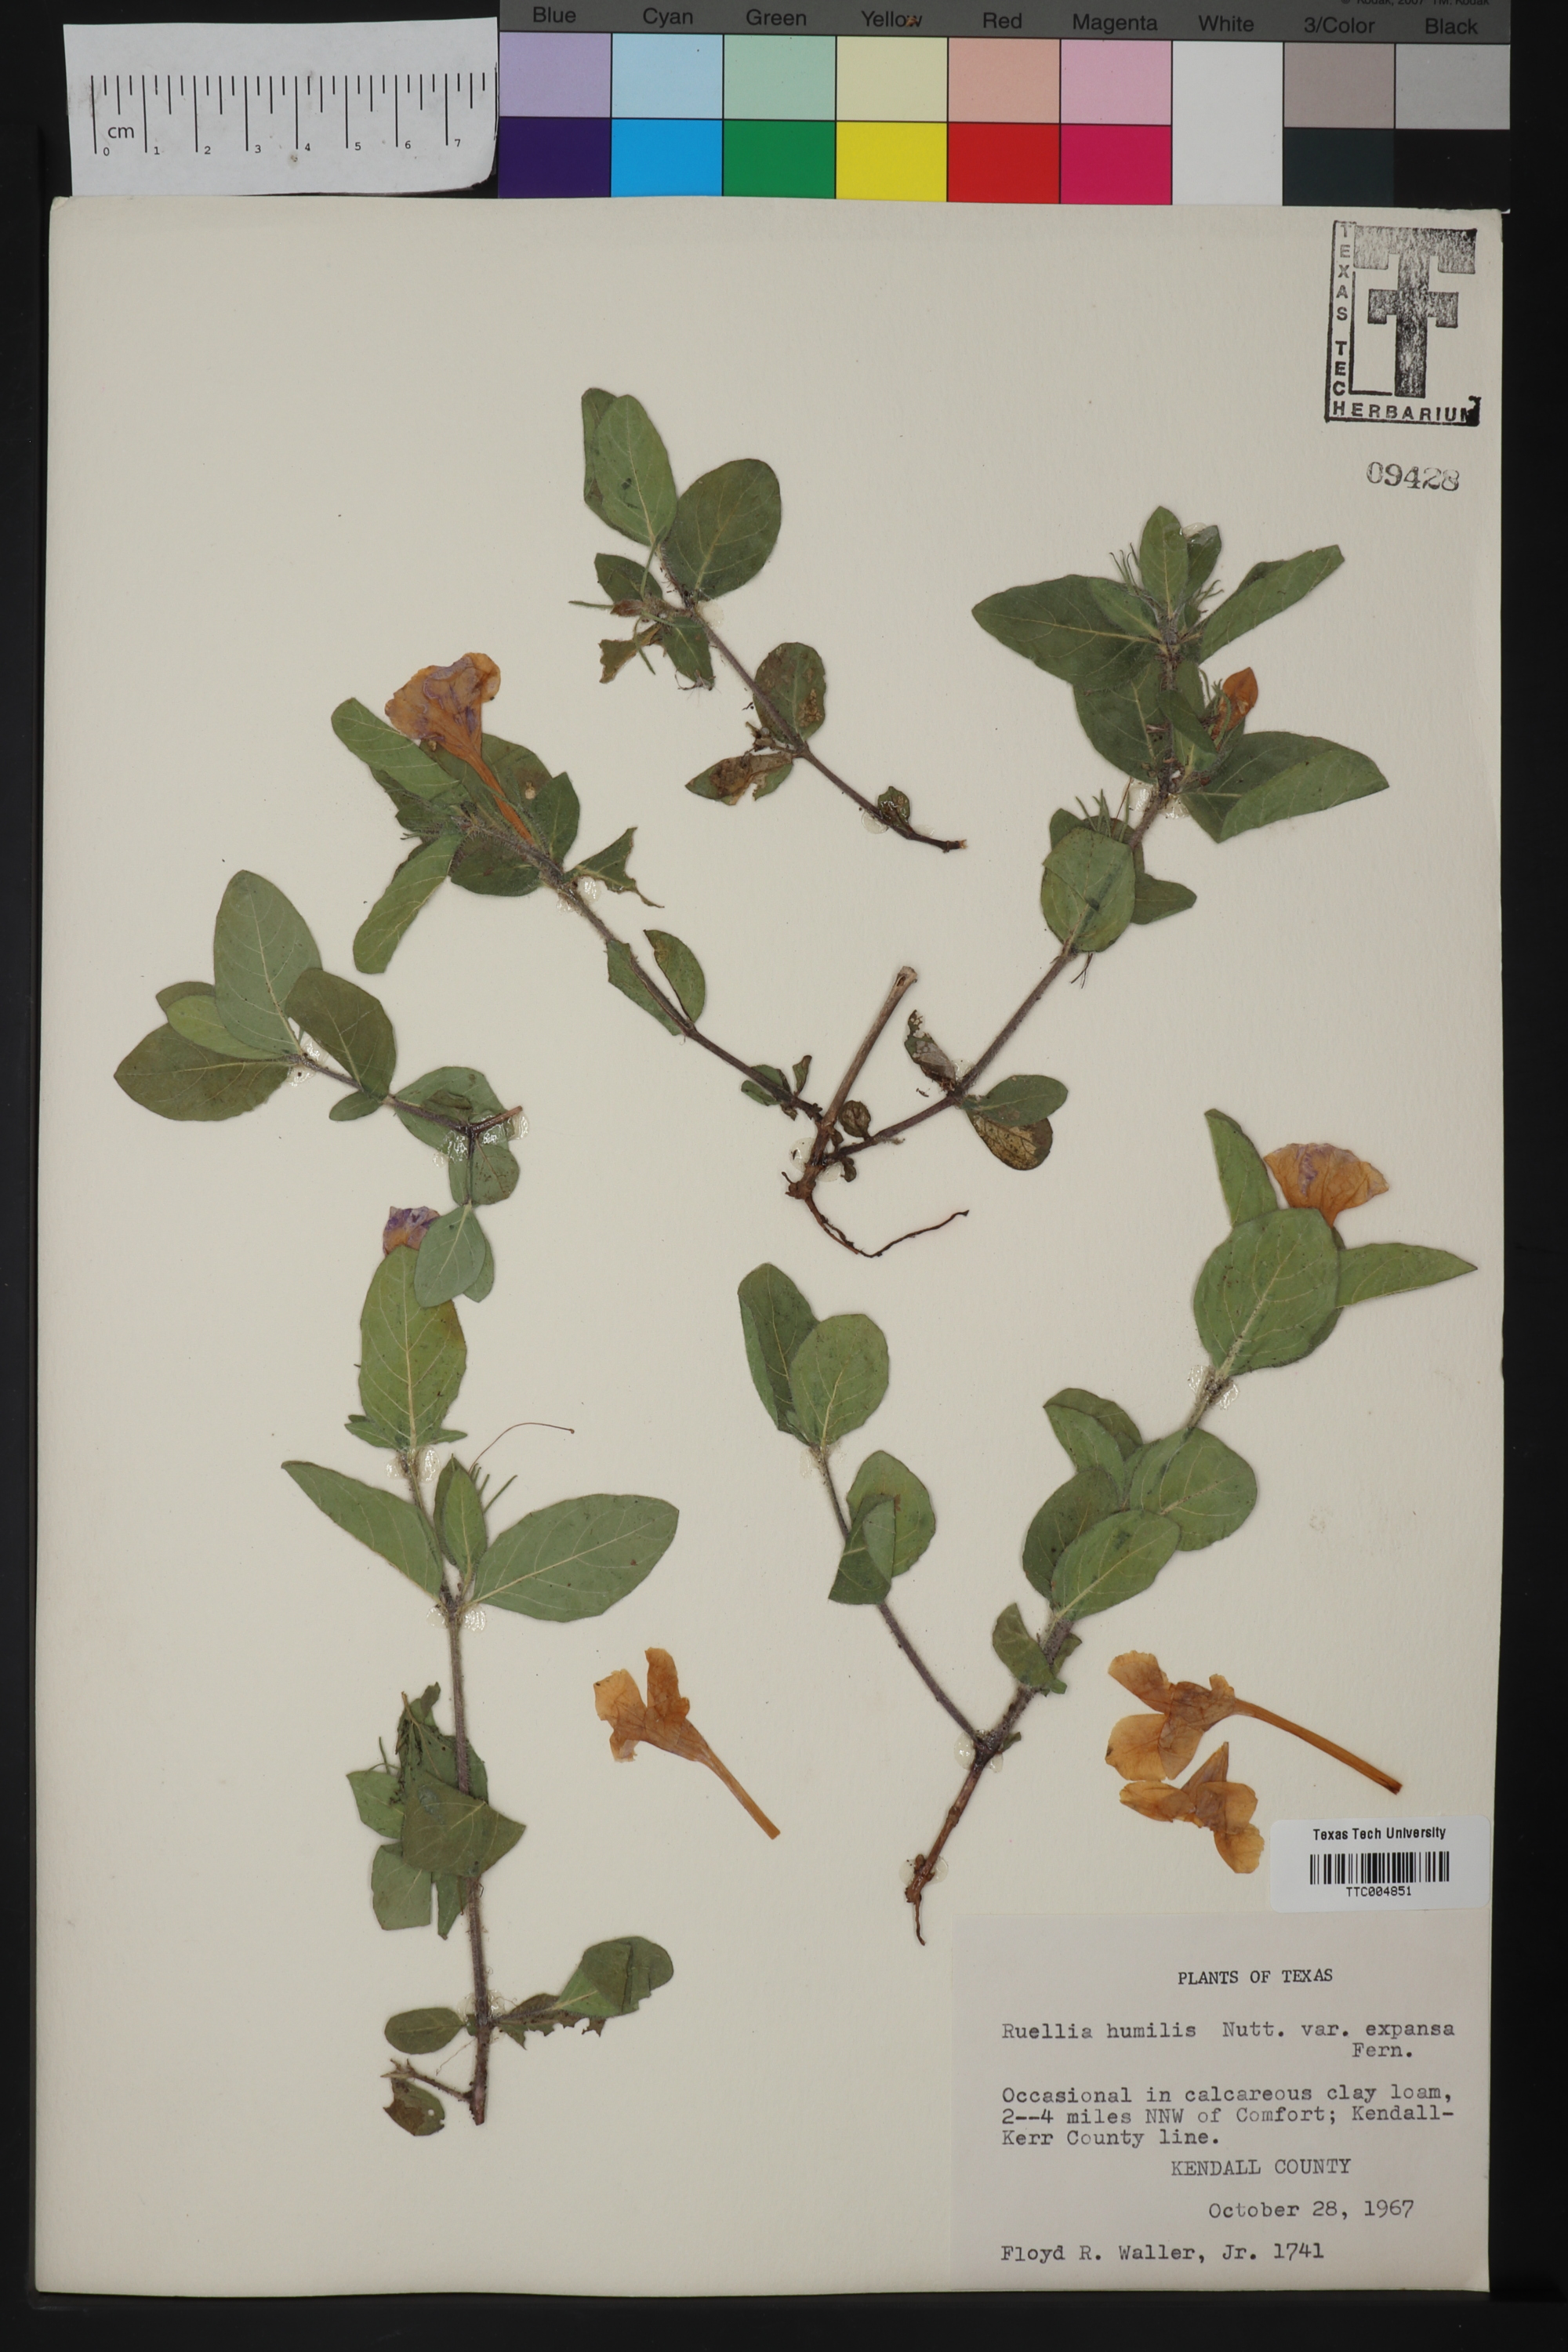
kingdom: Plantae
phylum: Tracheophyta
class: Magnoliopsida
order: Lamiales
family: Acanthaceae
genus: Ruellia
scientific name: Ruellia humilis
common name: Fringe-leaf ruellia
